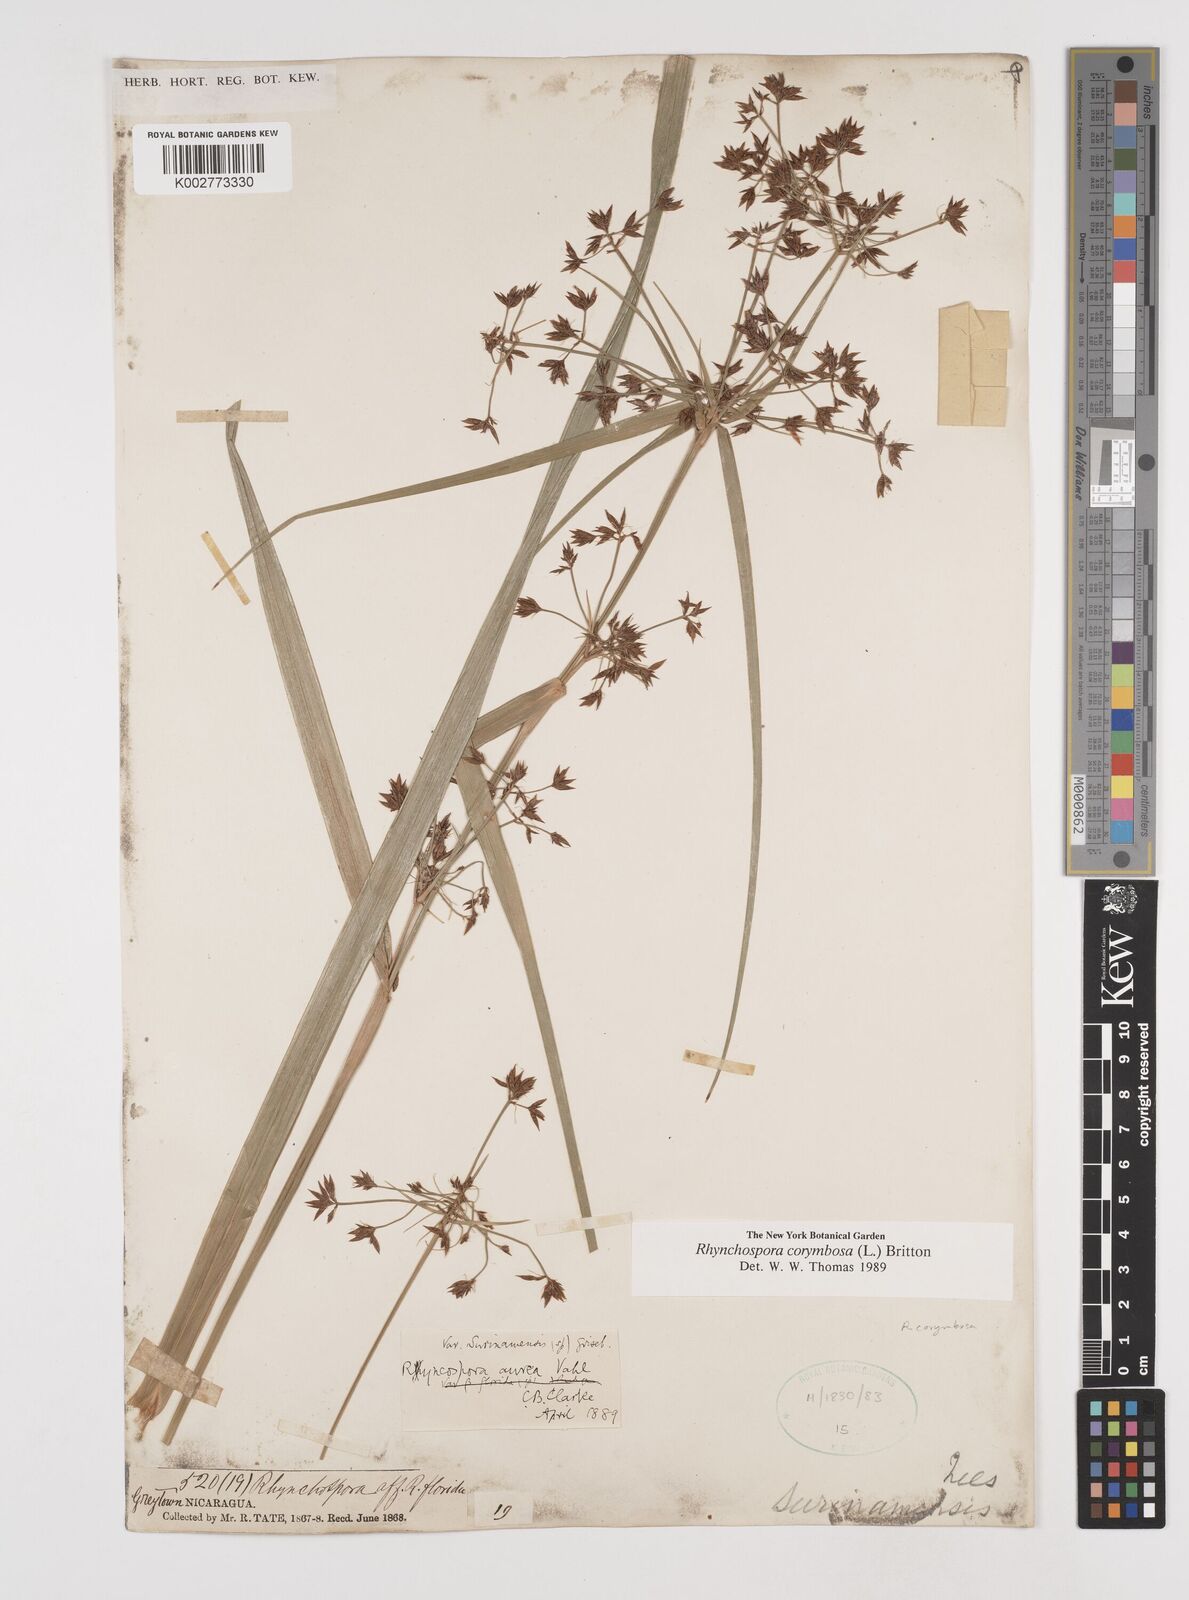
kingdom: Plantae
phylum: Tracheophyta
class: Liliopsida
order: Poales
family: Cyperaceae
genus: Rhynchospora
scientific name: Rhynchospora corymbosa
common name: Golden beak sedge
